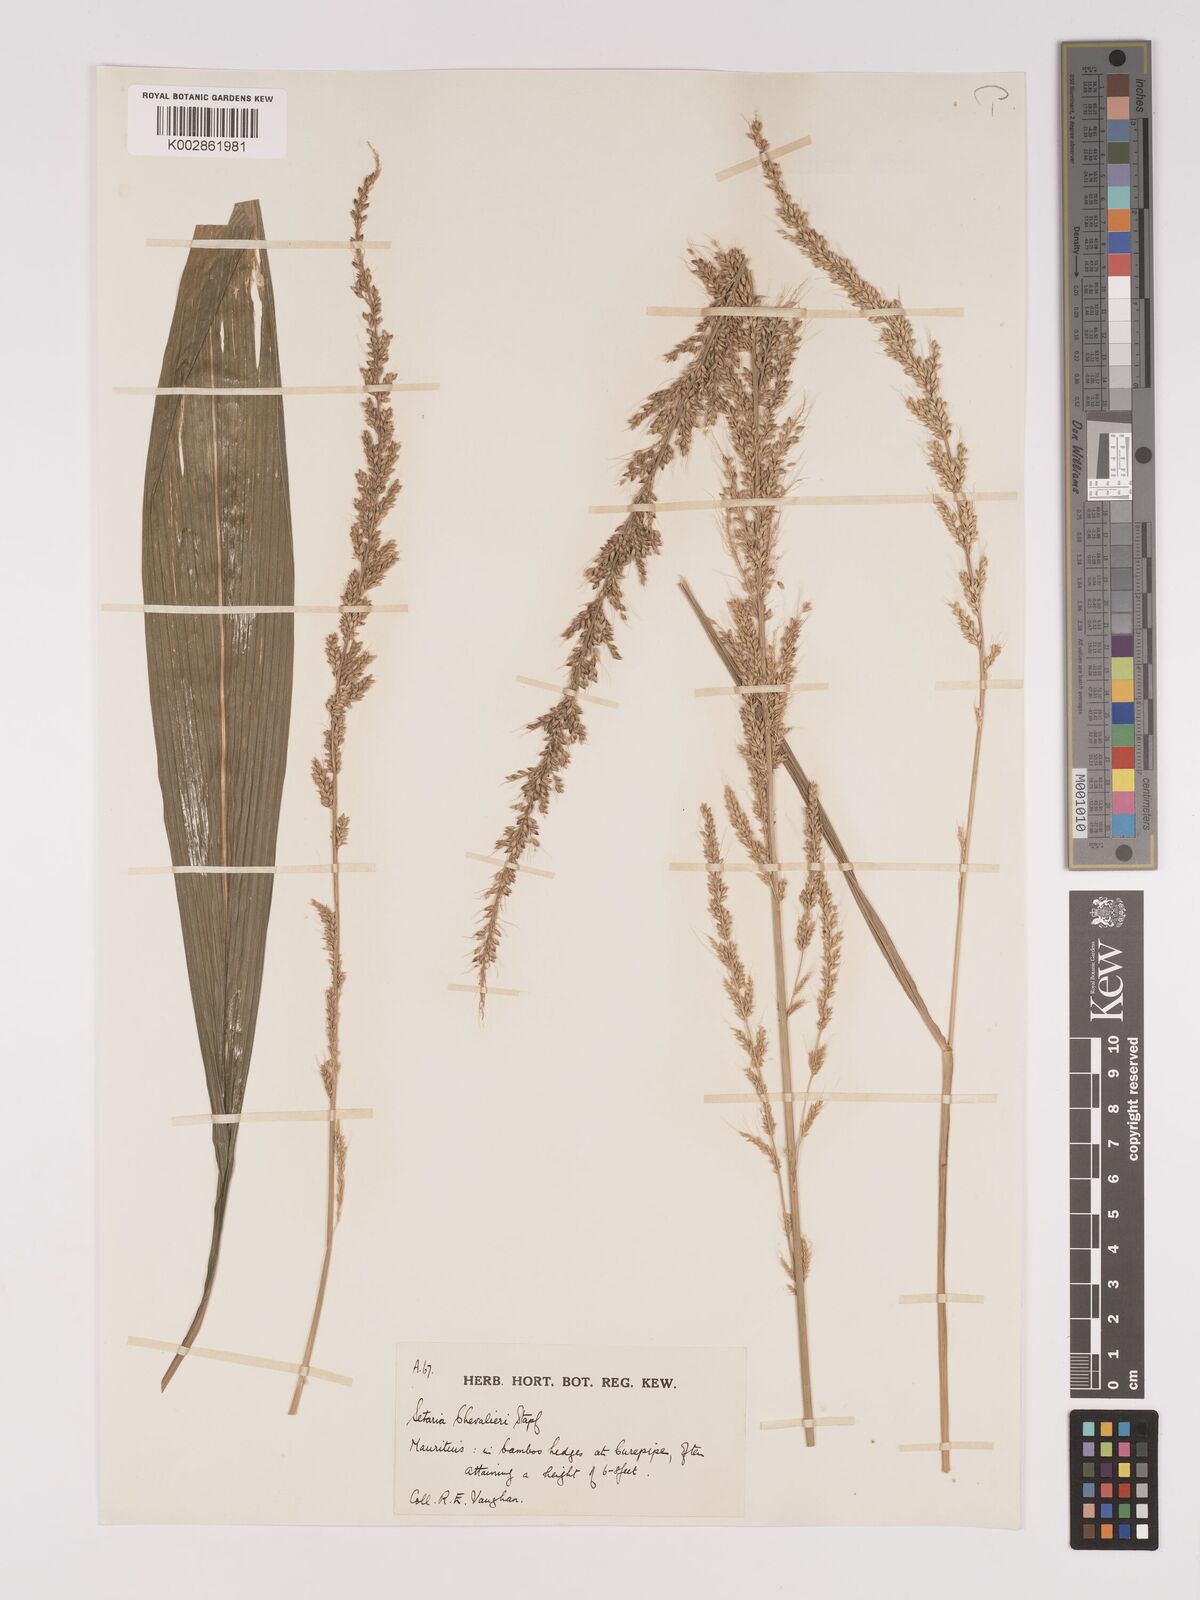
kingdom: Plantae
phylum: Tracheophyta
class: Liliopsida
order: Poales
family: Poaceae
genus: Setaria
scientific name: Setaria megaphylla
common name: Bigleaf bristlegrass
